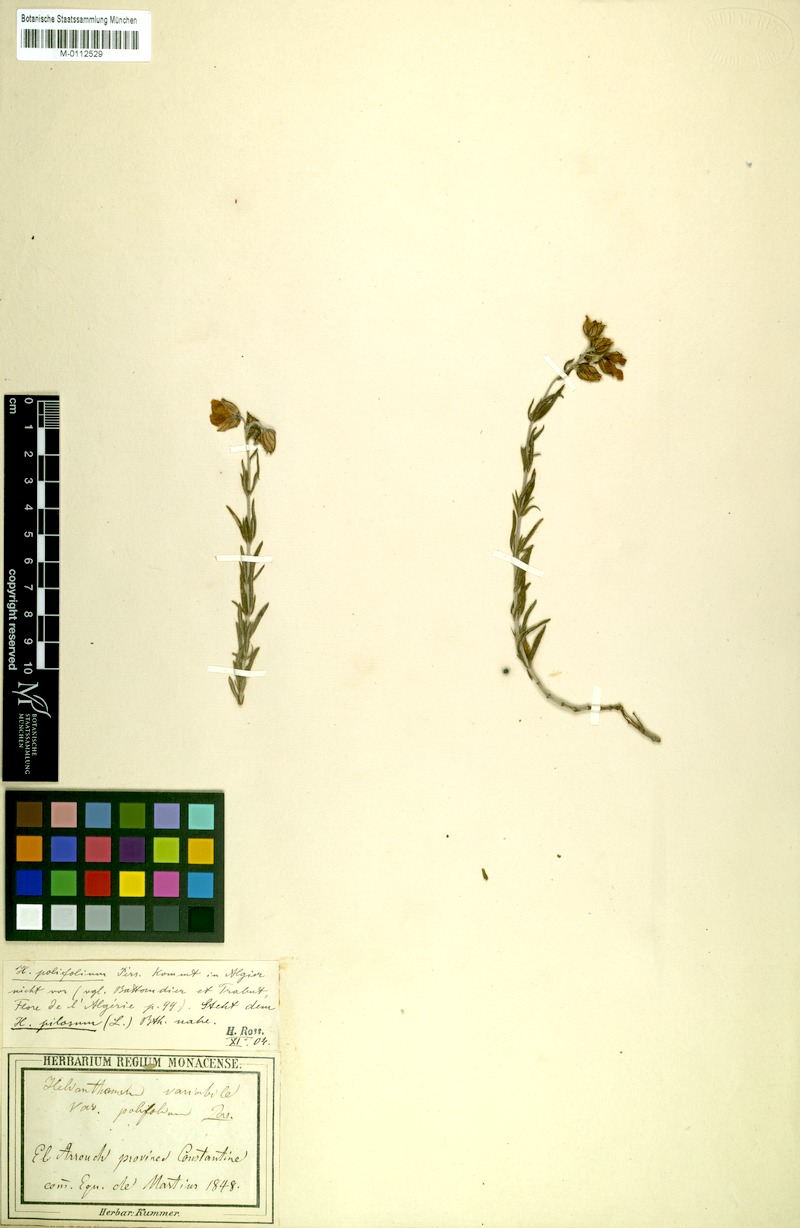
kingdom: Plantae
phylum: Tracheophyta
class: Magnoliopsida
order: Malvales
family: Cistaceae
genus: Helianthemum
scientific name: Helianthemum polifolium
